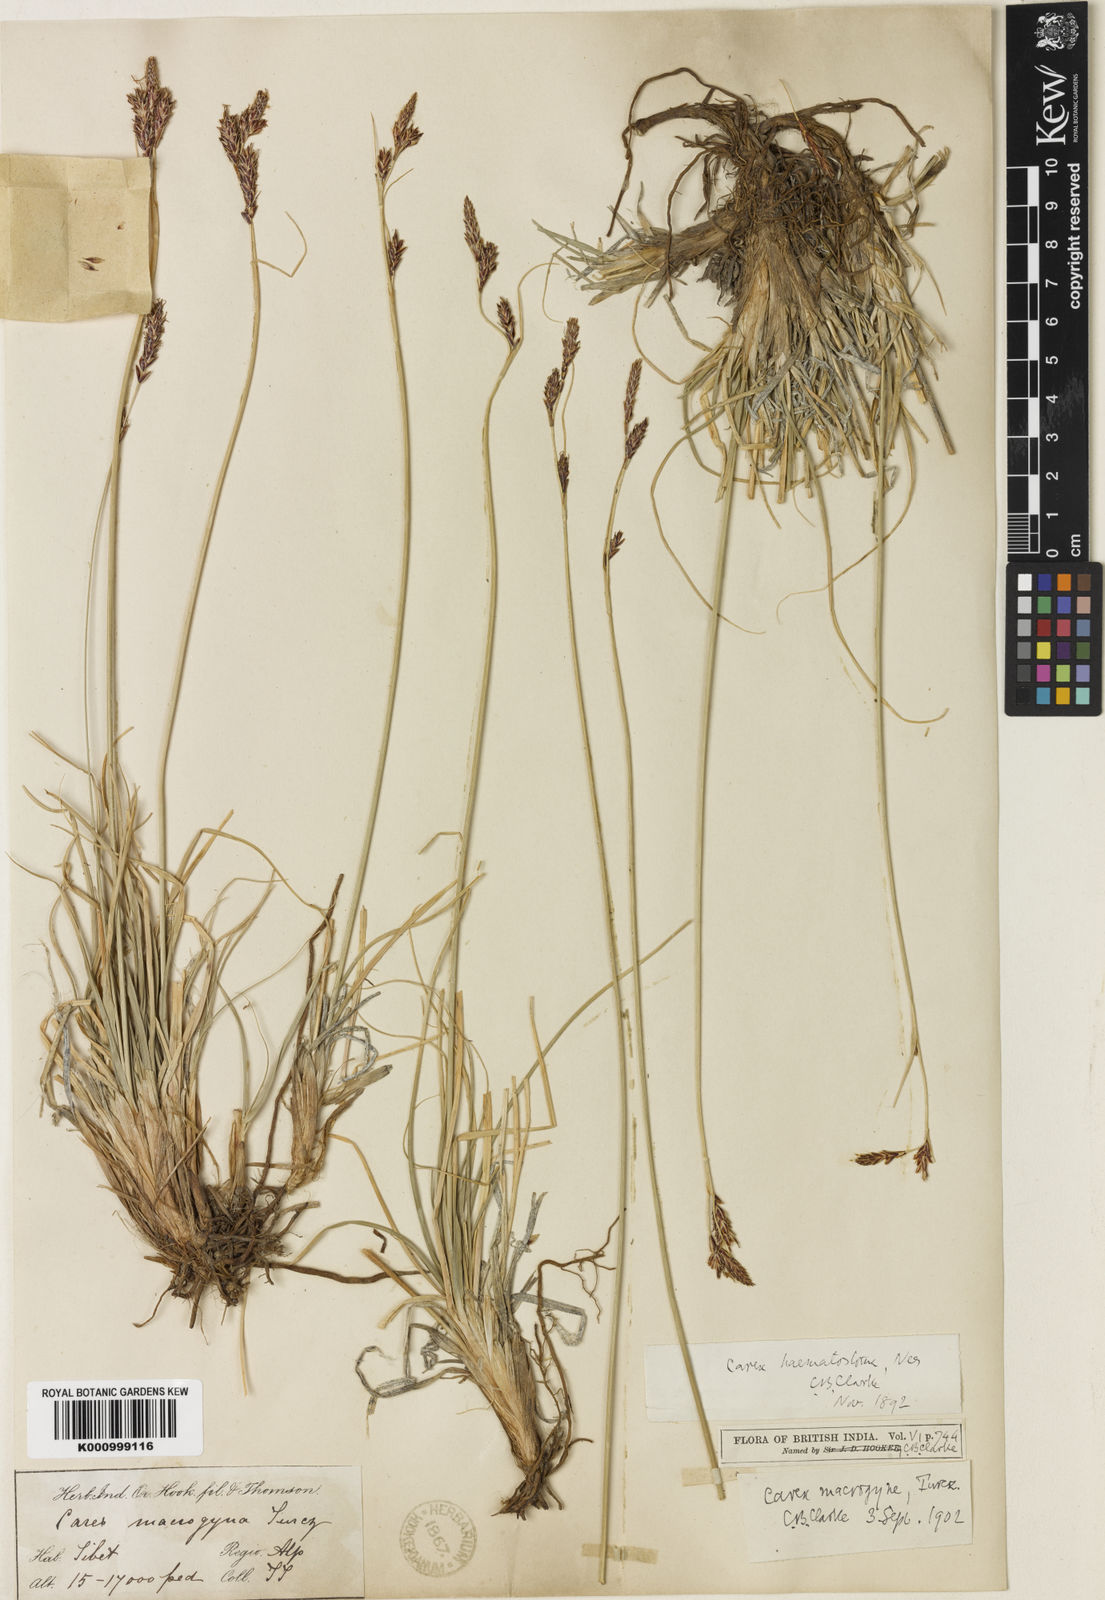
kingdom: Plantae
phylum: Tracheophyta
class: Liliopsida
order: Poales
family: Cyperaceae
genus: Carex
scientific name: Carex haematostoma
